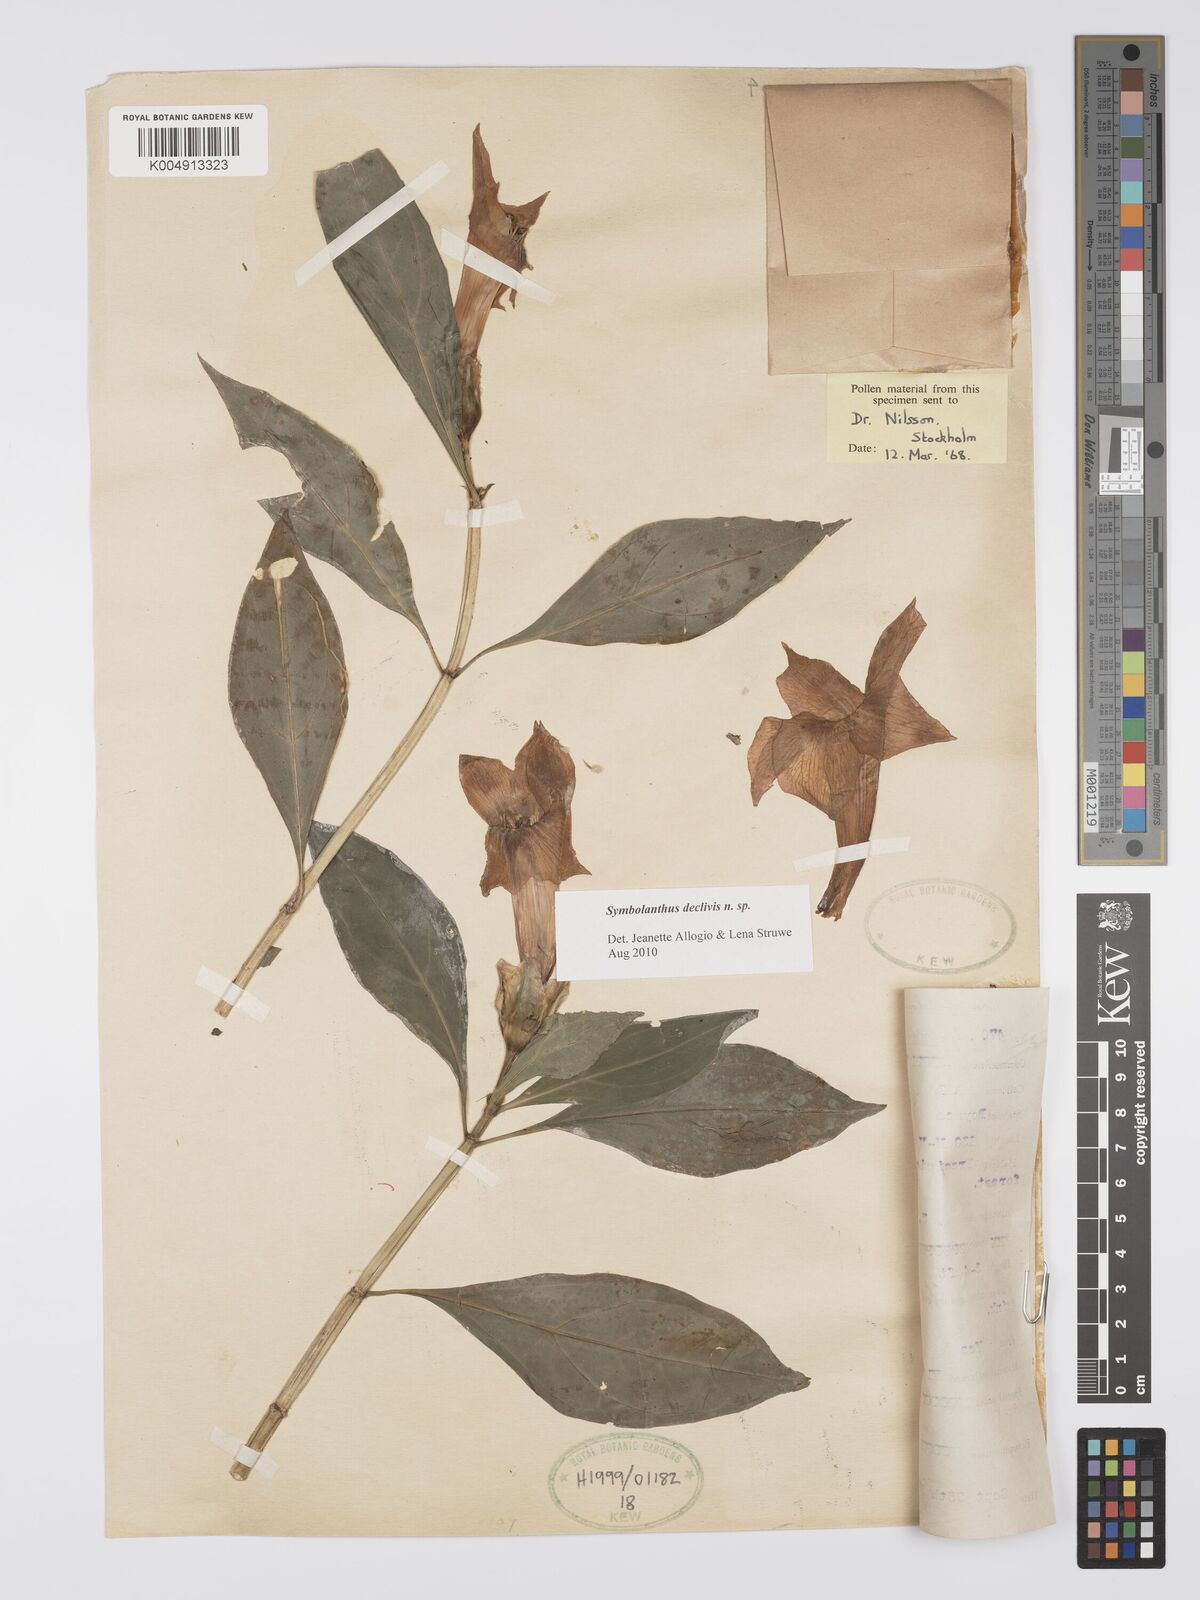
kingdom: Plantae
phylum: Tracheophyta
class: Magnoliopsida
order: Gentianales
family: Gentianaceae
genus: Symbolanthus
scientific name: Symbolanthus
